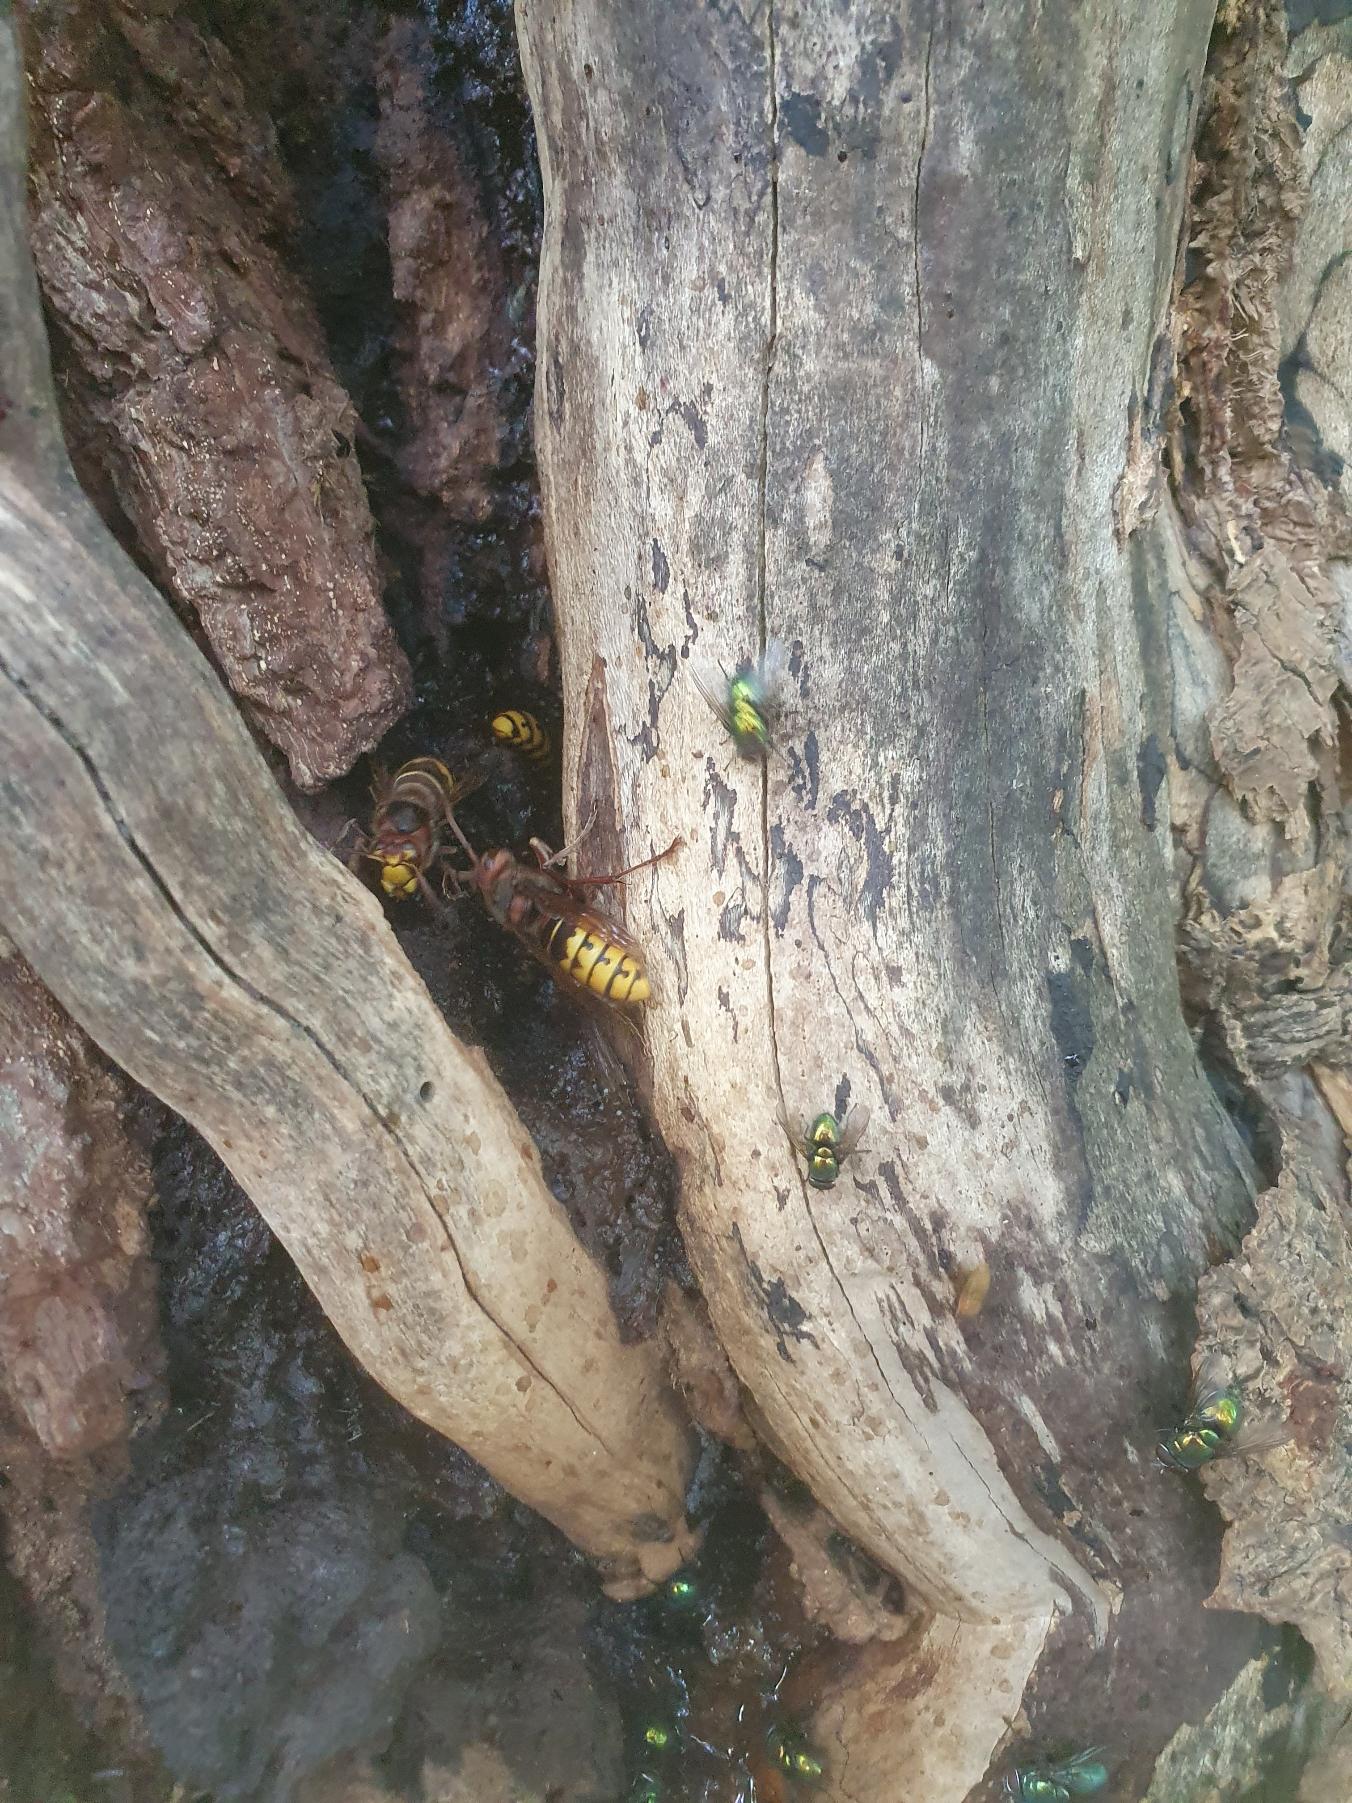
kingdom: Animalia
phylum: Arthropoda
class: Insecta
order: Hymenoptera
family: Vespidae
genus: Vespa
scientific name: Vespa crabro
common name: Stor gedehams
